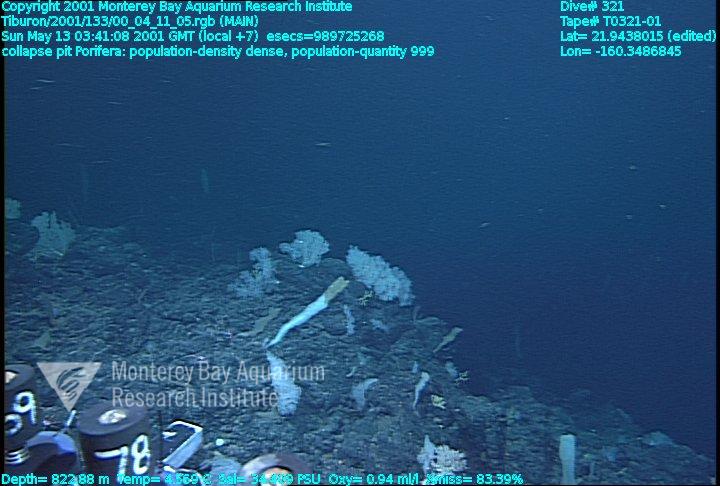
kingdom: Animalia
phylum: Porifera
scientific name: Porifera
